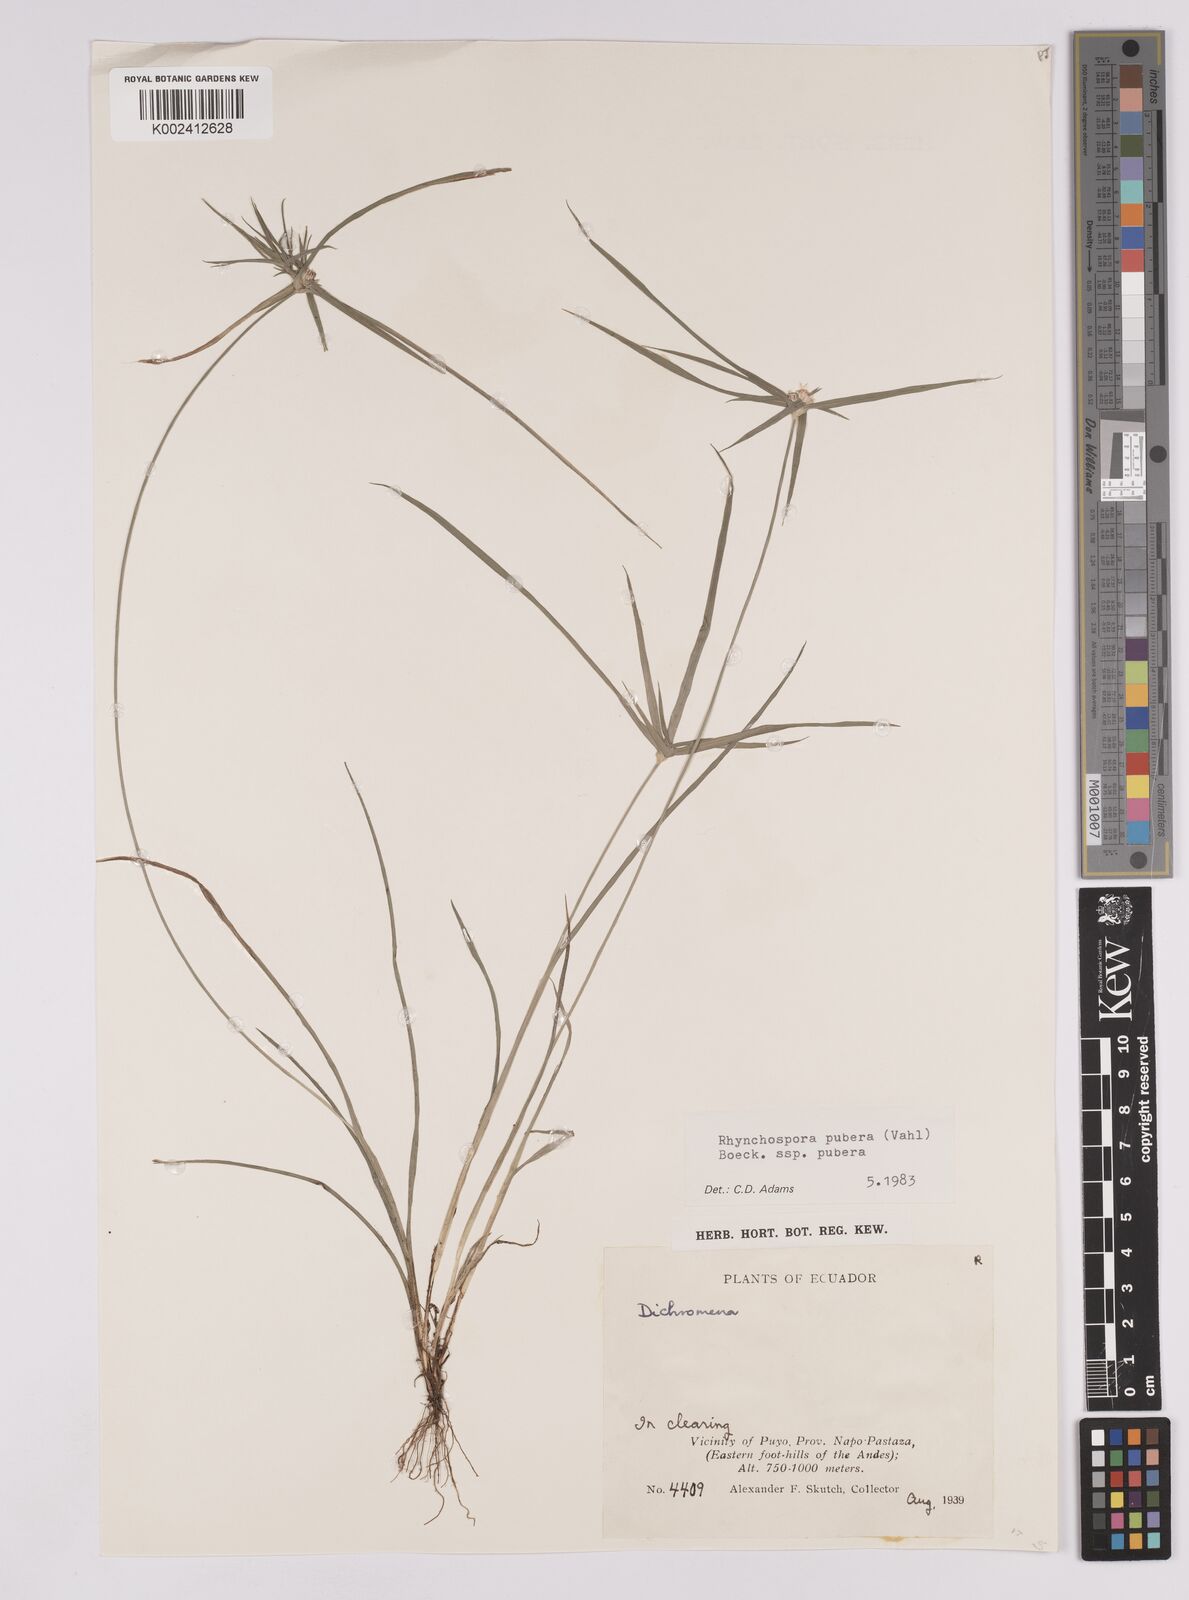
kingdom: Plantae
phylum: Tracheophyta
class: Liliopsida
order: Poales
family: Cyperaceae
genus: Rhynchospora
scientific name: Rhynchospora pubera
